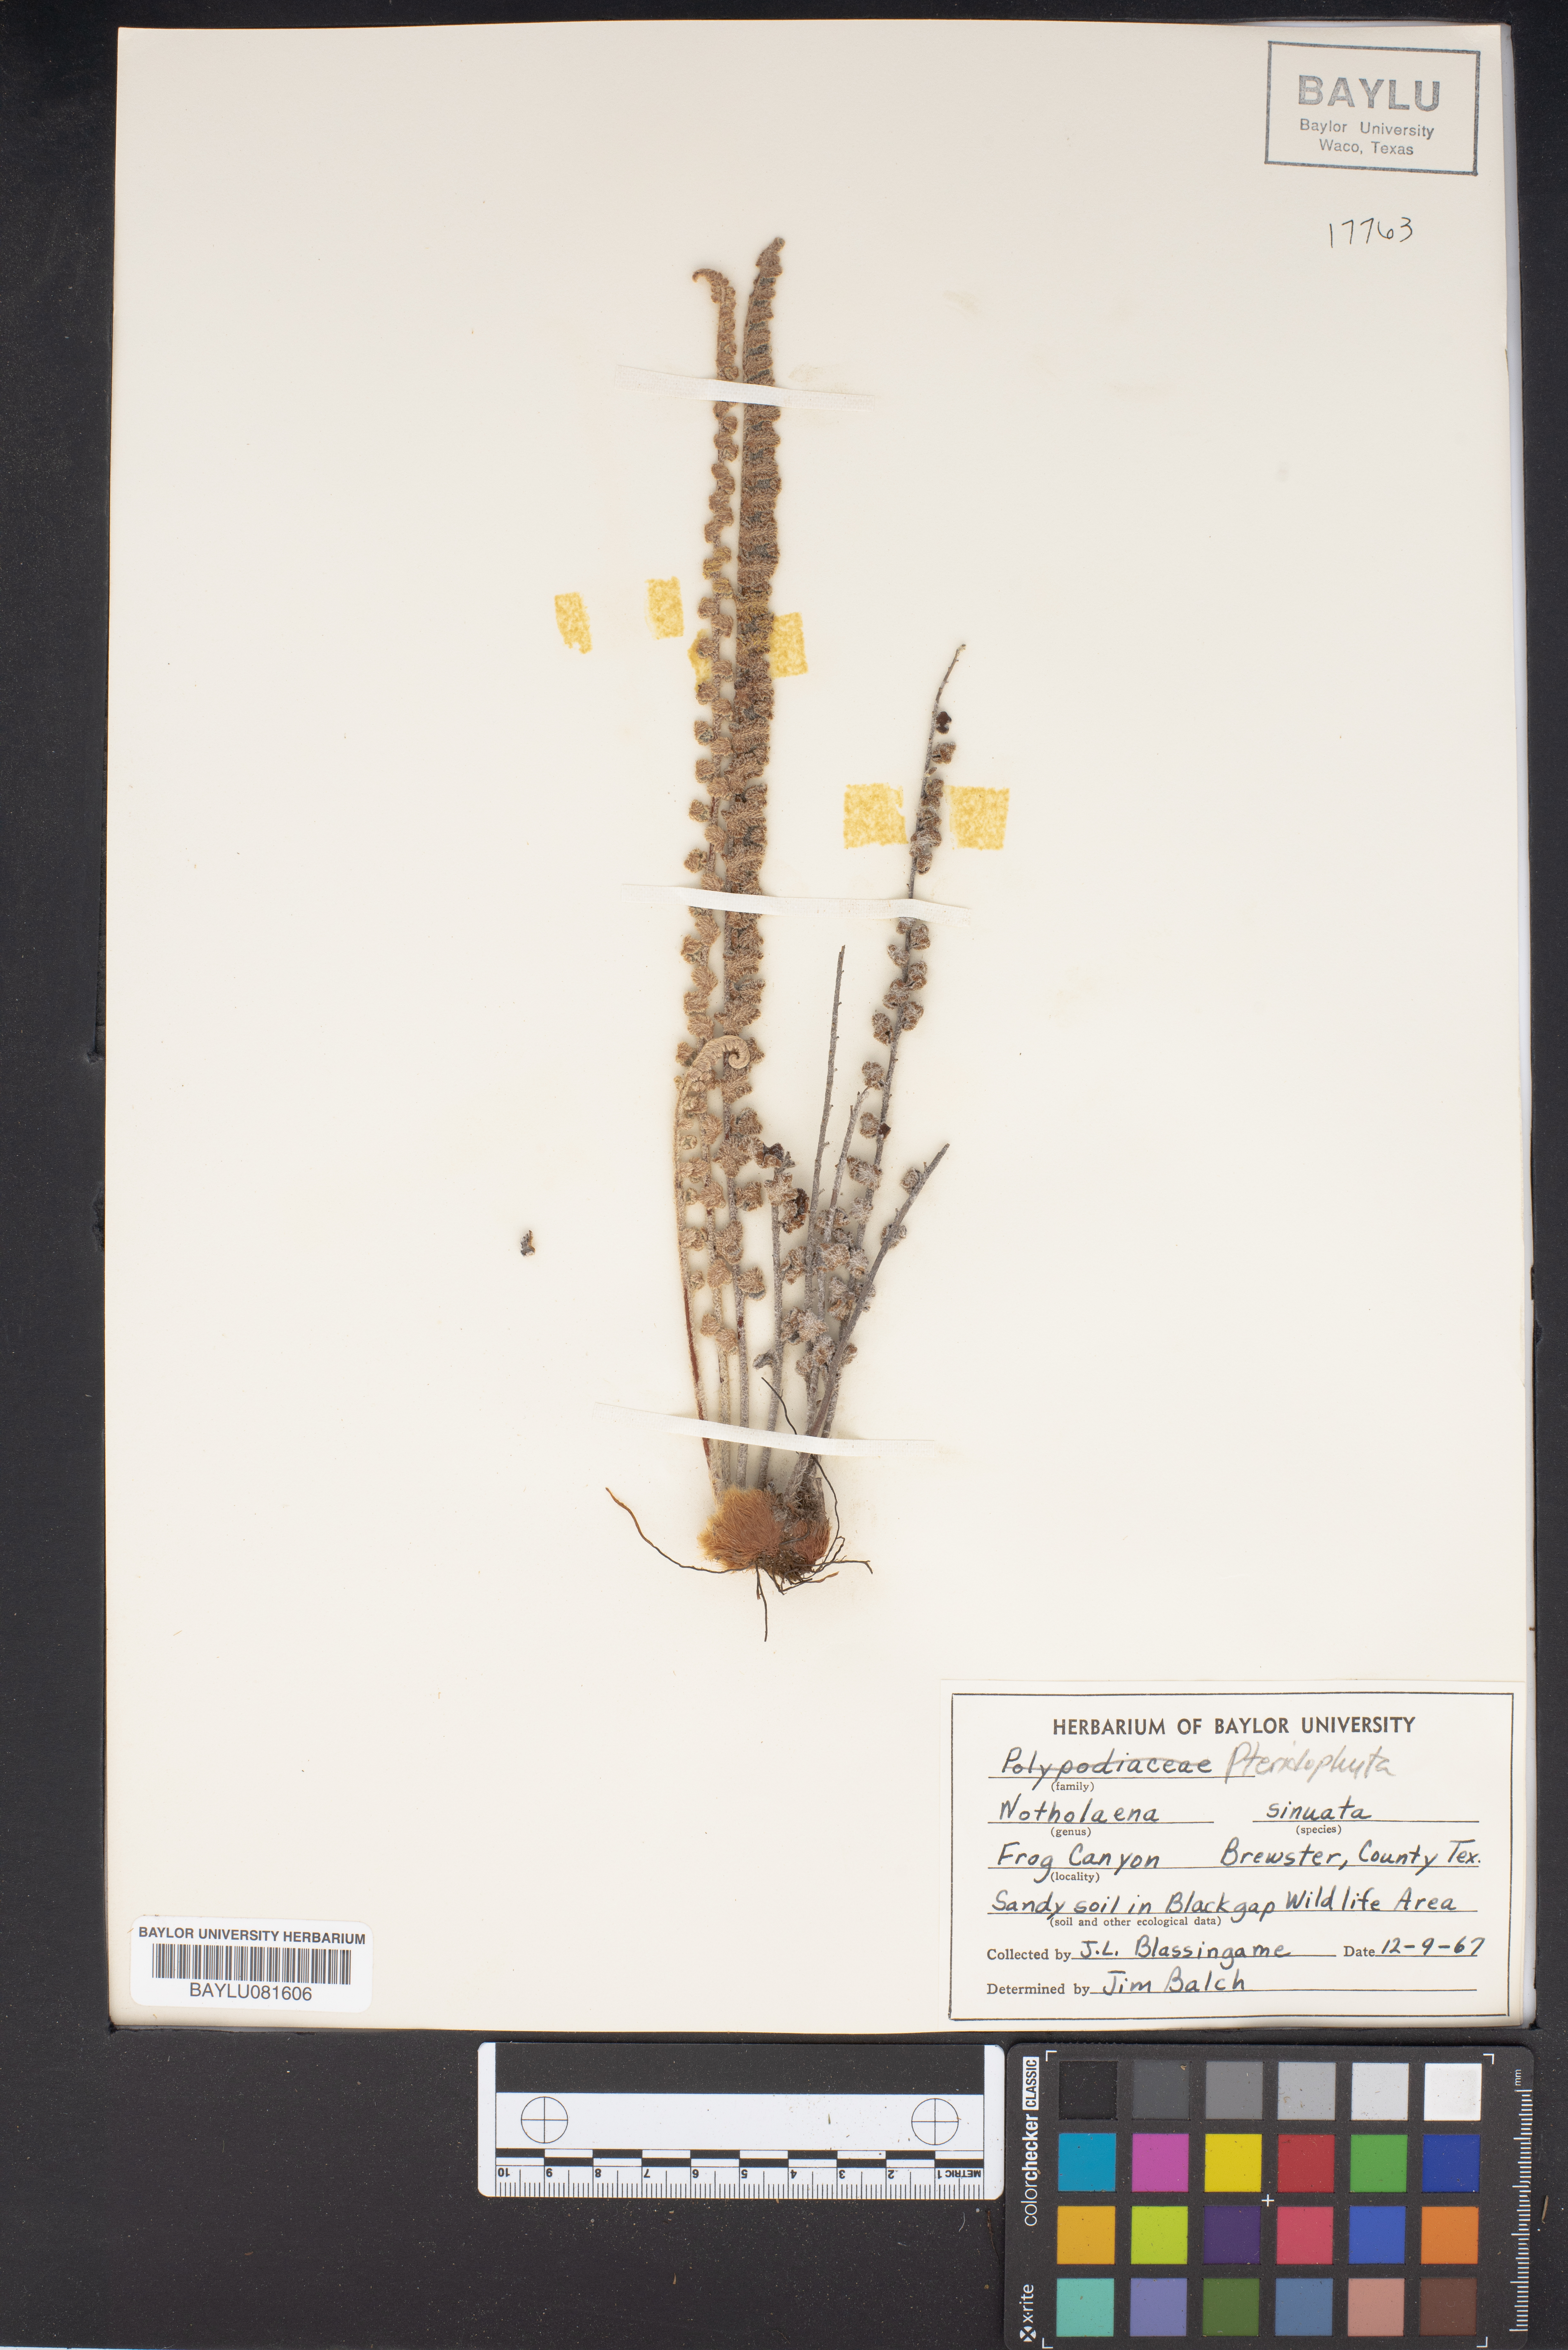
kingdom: Plantae
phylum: Tracheophyta
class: Polypodiopsida
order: Polypodiales
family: Pteridaceae
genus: Astrolepis
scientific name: Astrolepis sinuata
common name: Wavy scaly cloakfern
